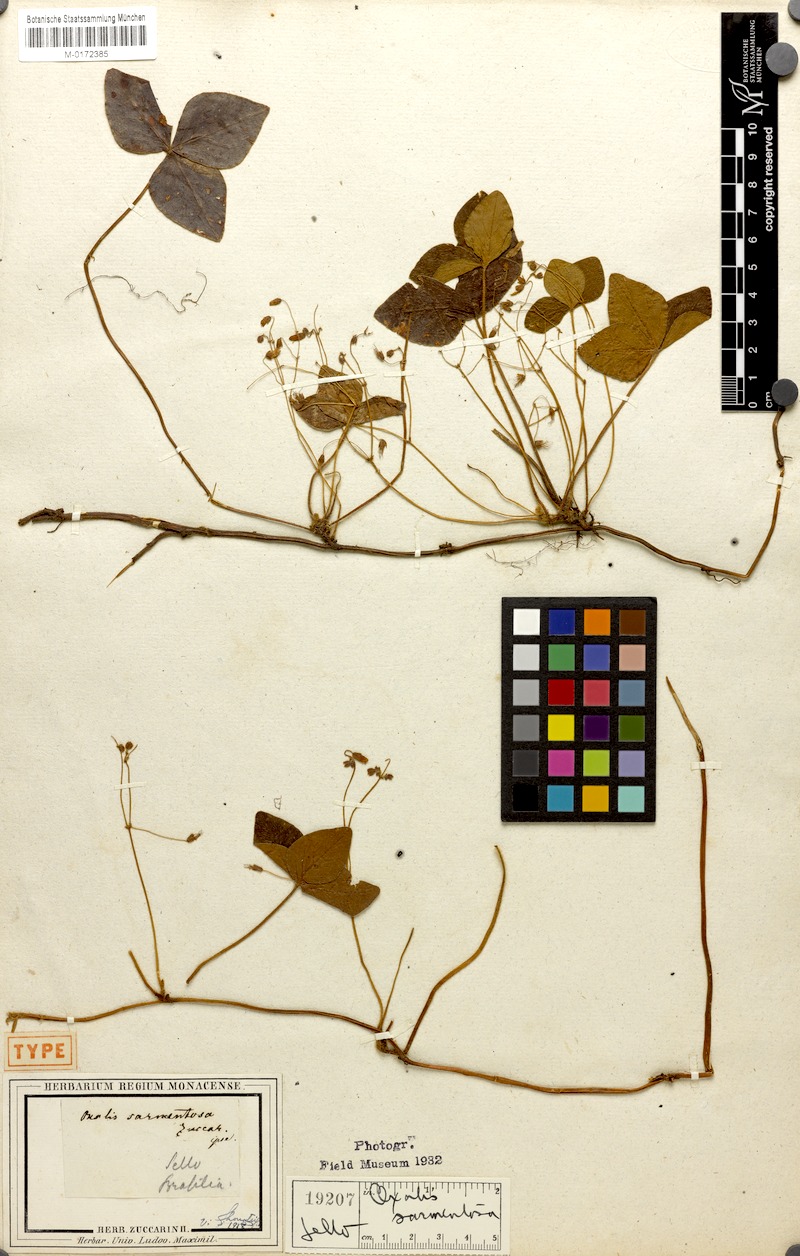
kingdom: Plantae
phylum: Tracheophyta
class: Magnoliopsida
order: Oxalidales
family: Oxalidaceae
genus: Oxalis
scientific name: Oxalis sarmentosa
